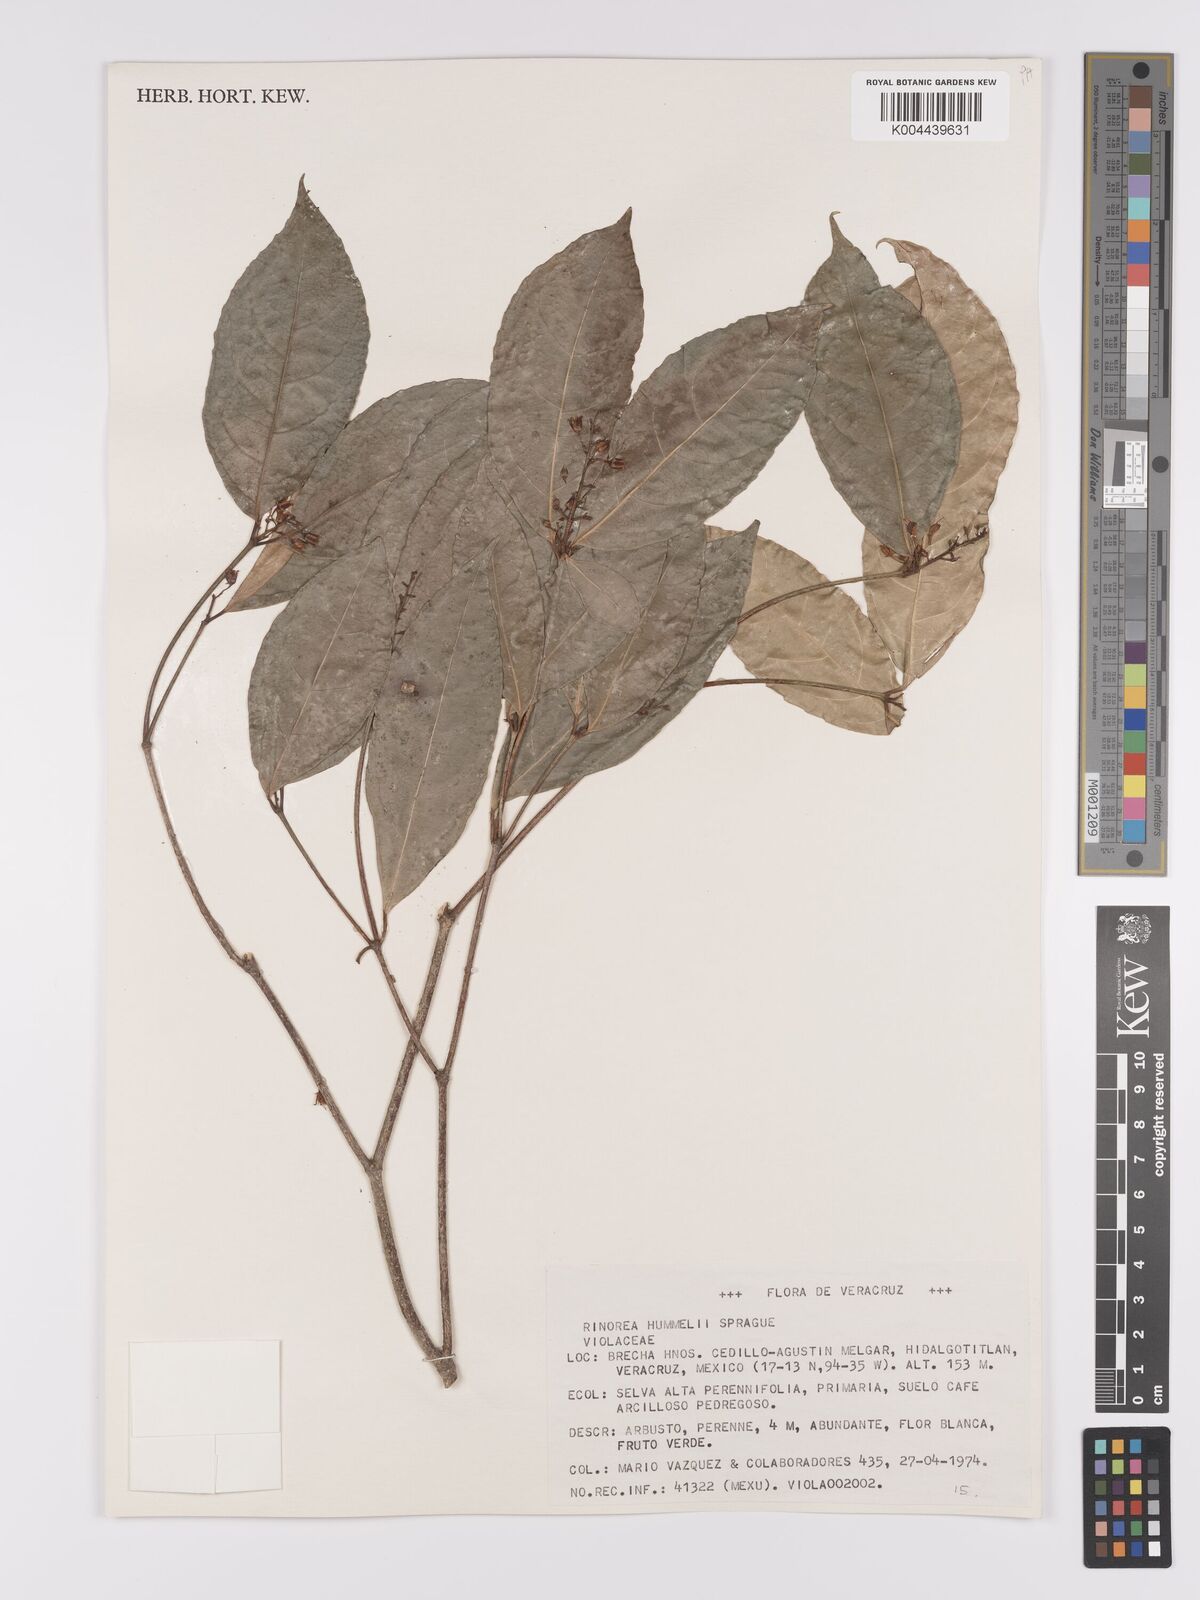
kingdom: Plantae
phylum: Tracheophyta
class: Magnoliopsida
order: Malpighiales
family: Violaceae
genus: Rinorea
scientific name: Rinorea hummelii
